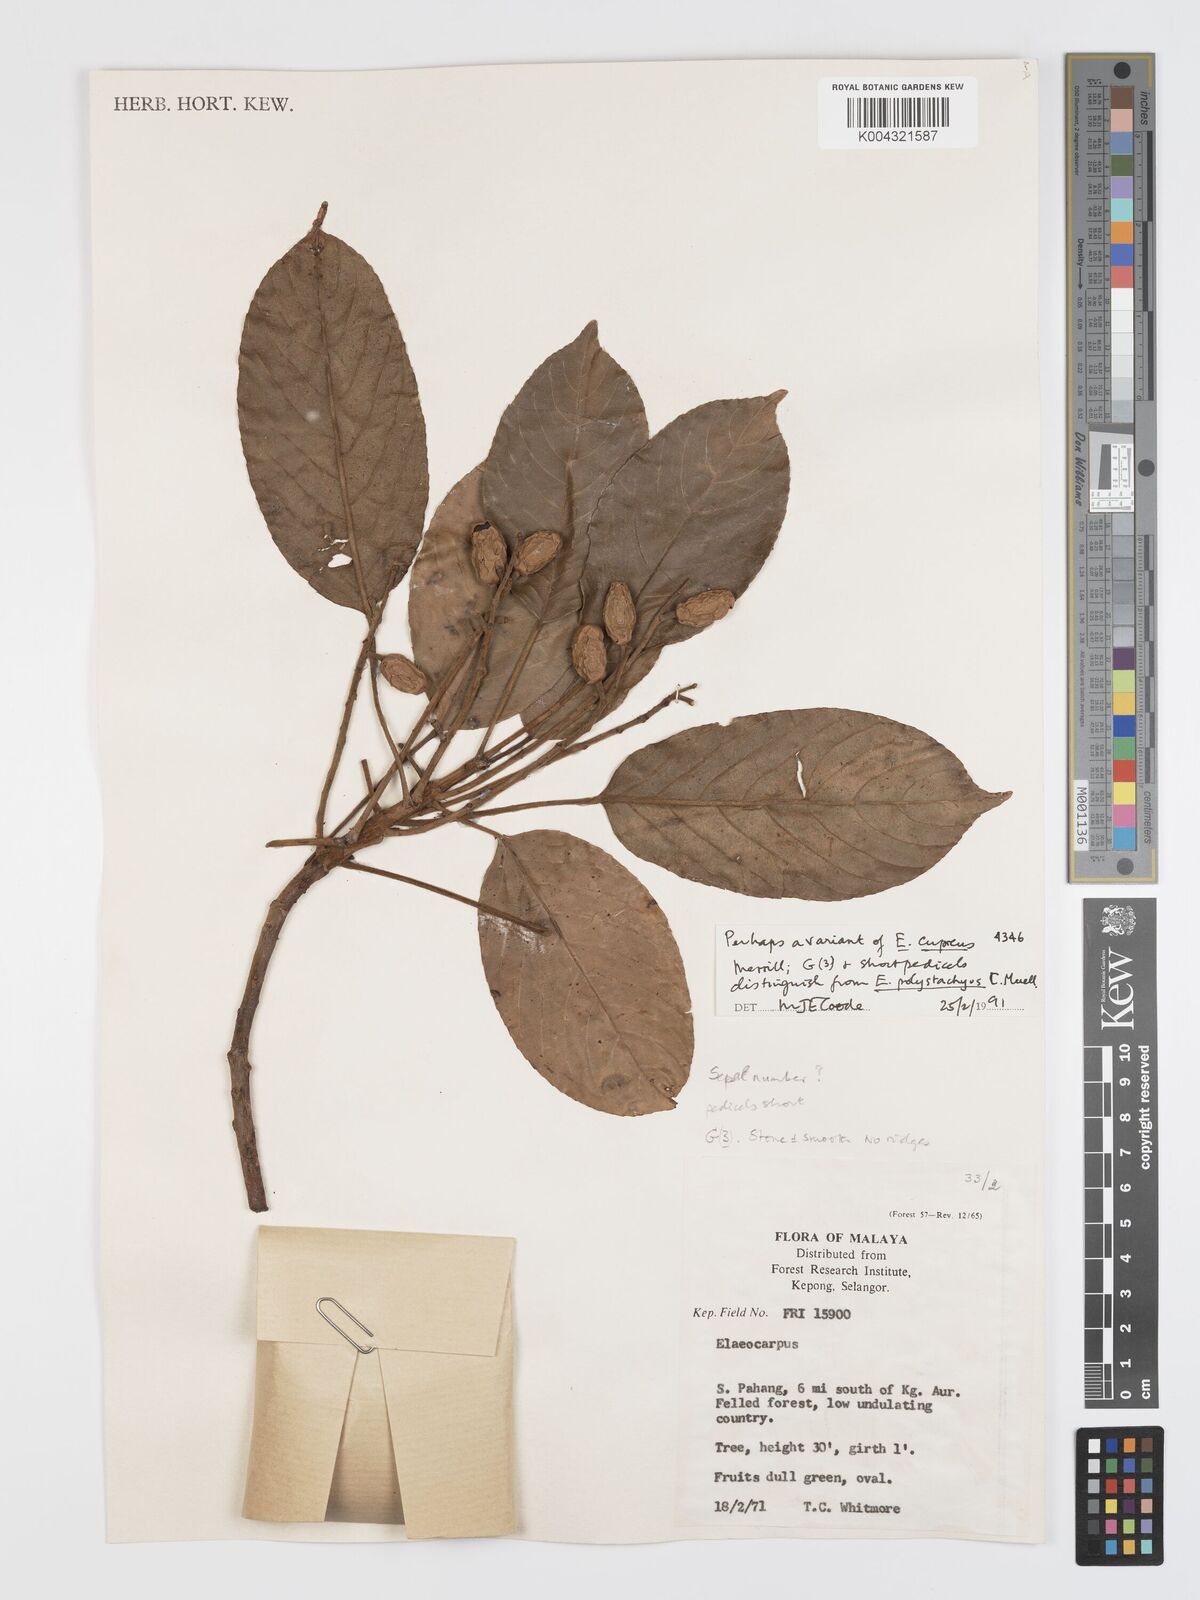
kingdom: Plantae
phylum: Tracheophyta
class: Magnoliopsida
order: Oxalidales
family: Elaeocarpaceae
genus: Elaeocarpus
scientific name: Elaeocarpus cupreus
